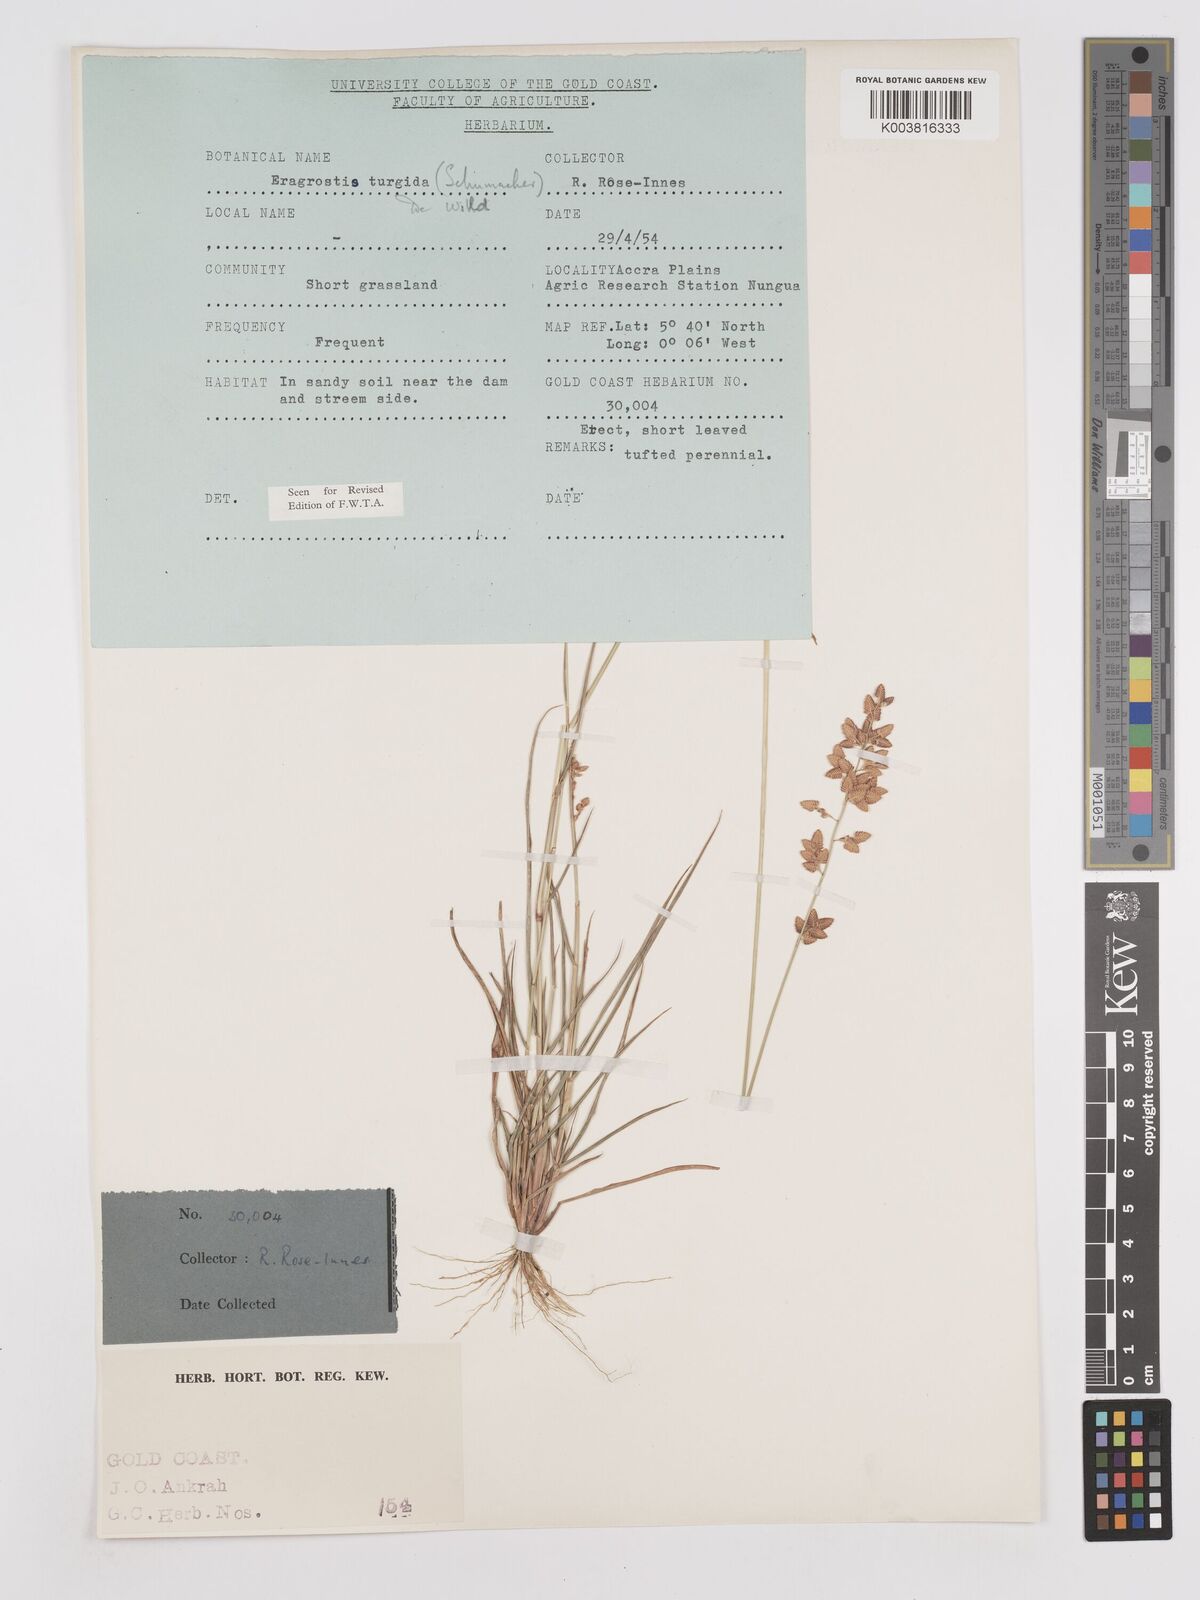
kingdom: Plantae
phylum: Tracheophyta
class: Liliopsida
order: Poales
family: Poaceae
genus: Eragrostis
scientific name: Eragrostis turgida
